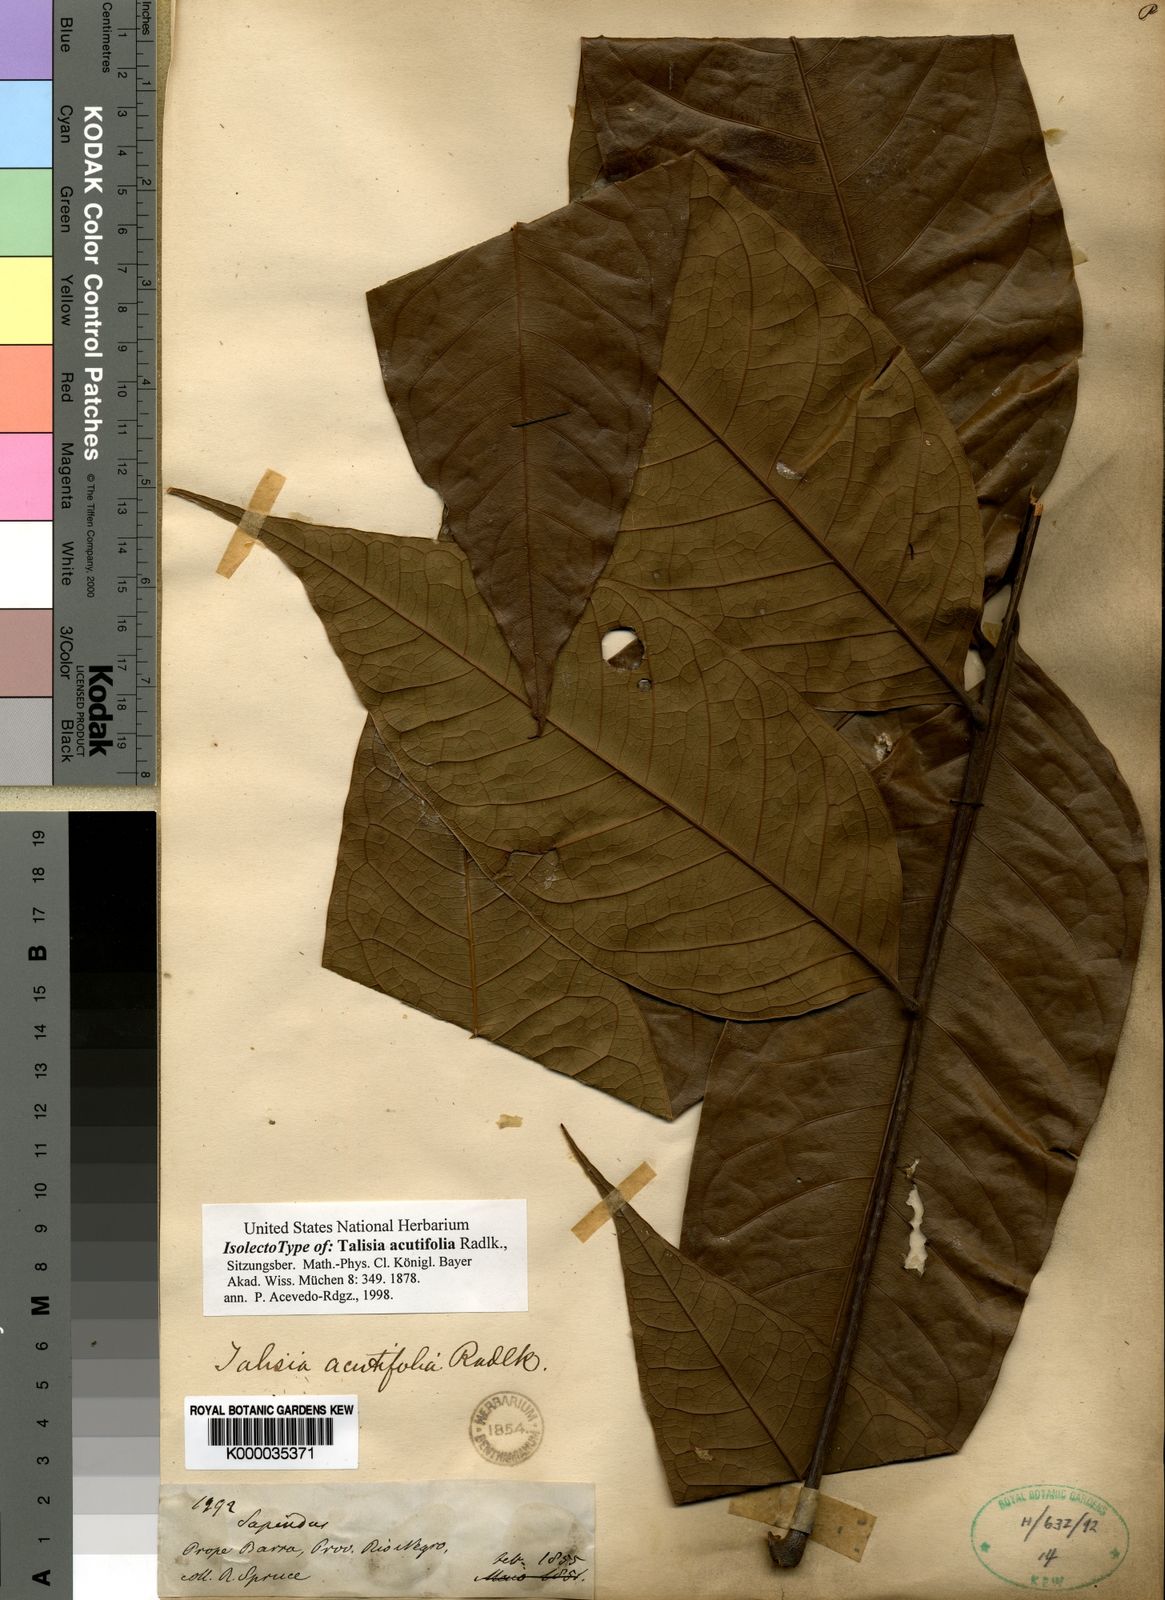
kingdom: Plantae
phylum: Tracheophyta
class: Magnoliopsida
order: Sapindales
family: Sapindaceae
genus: Talisia
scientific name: Talisia acutifolia
